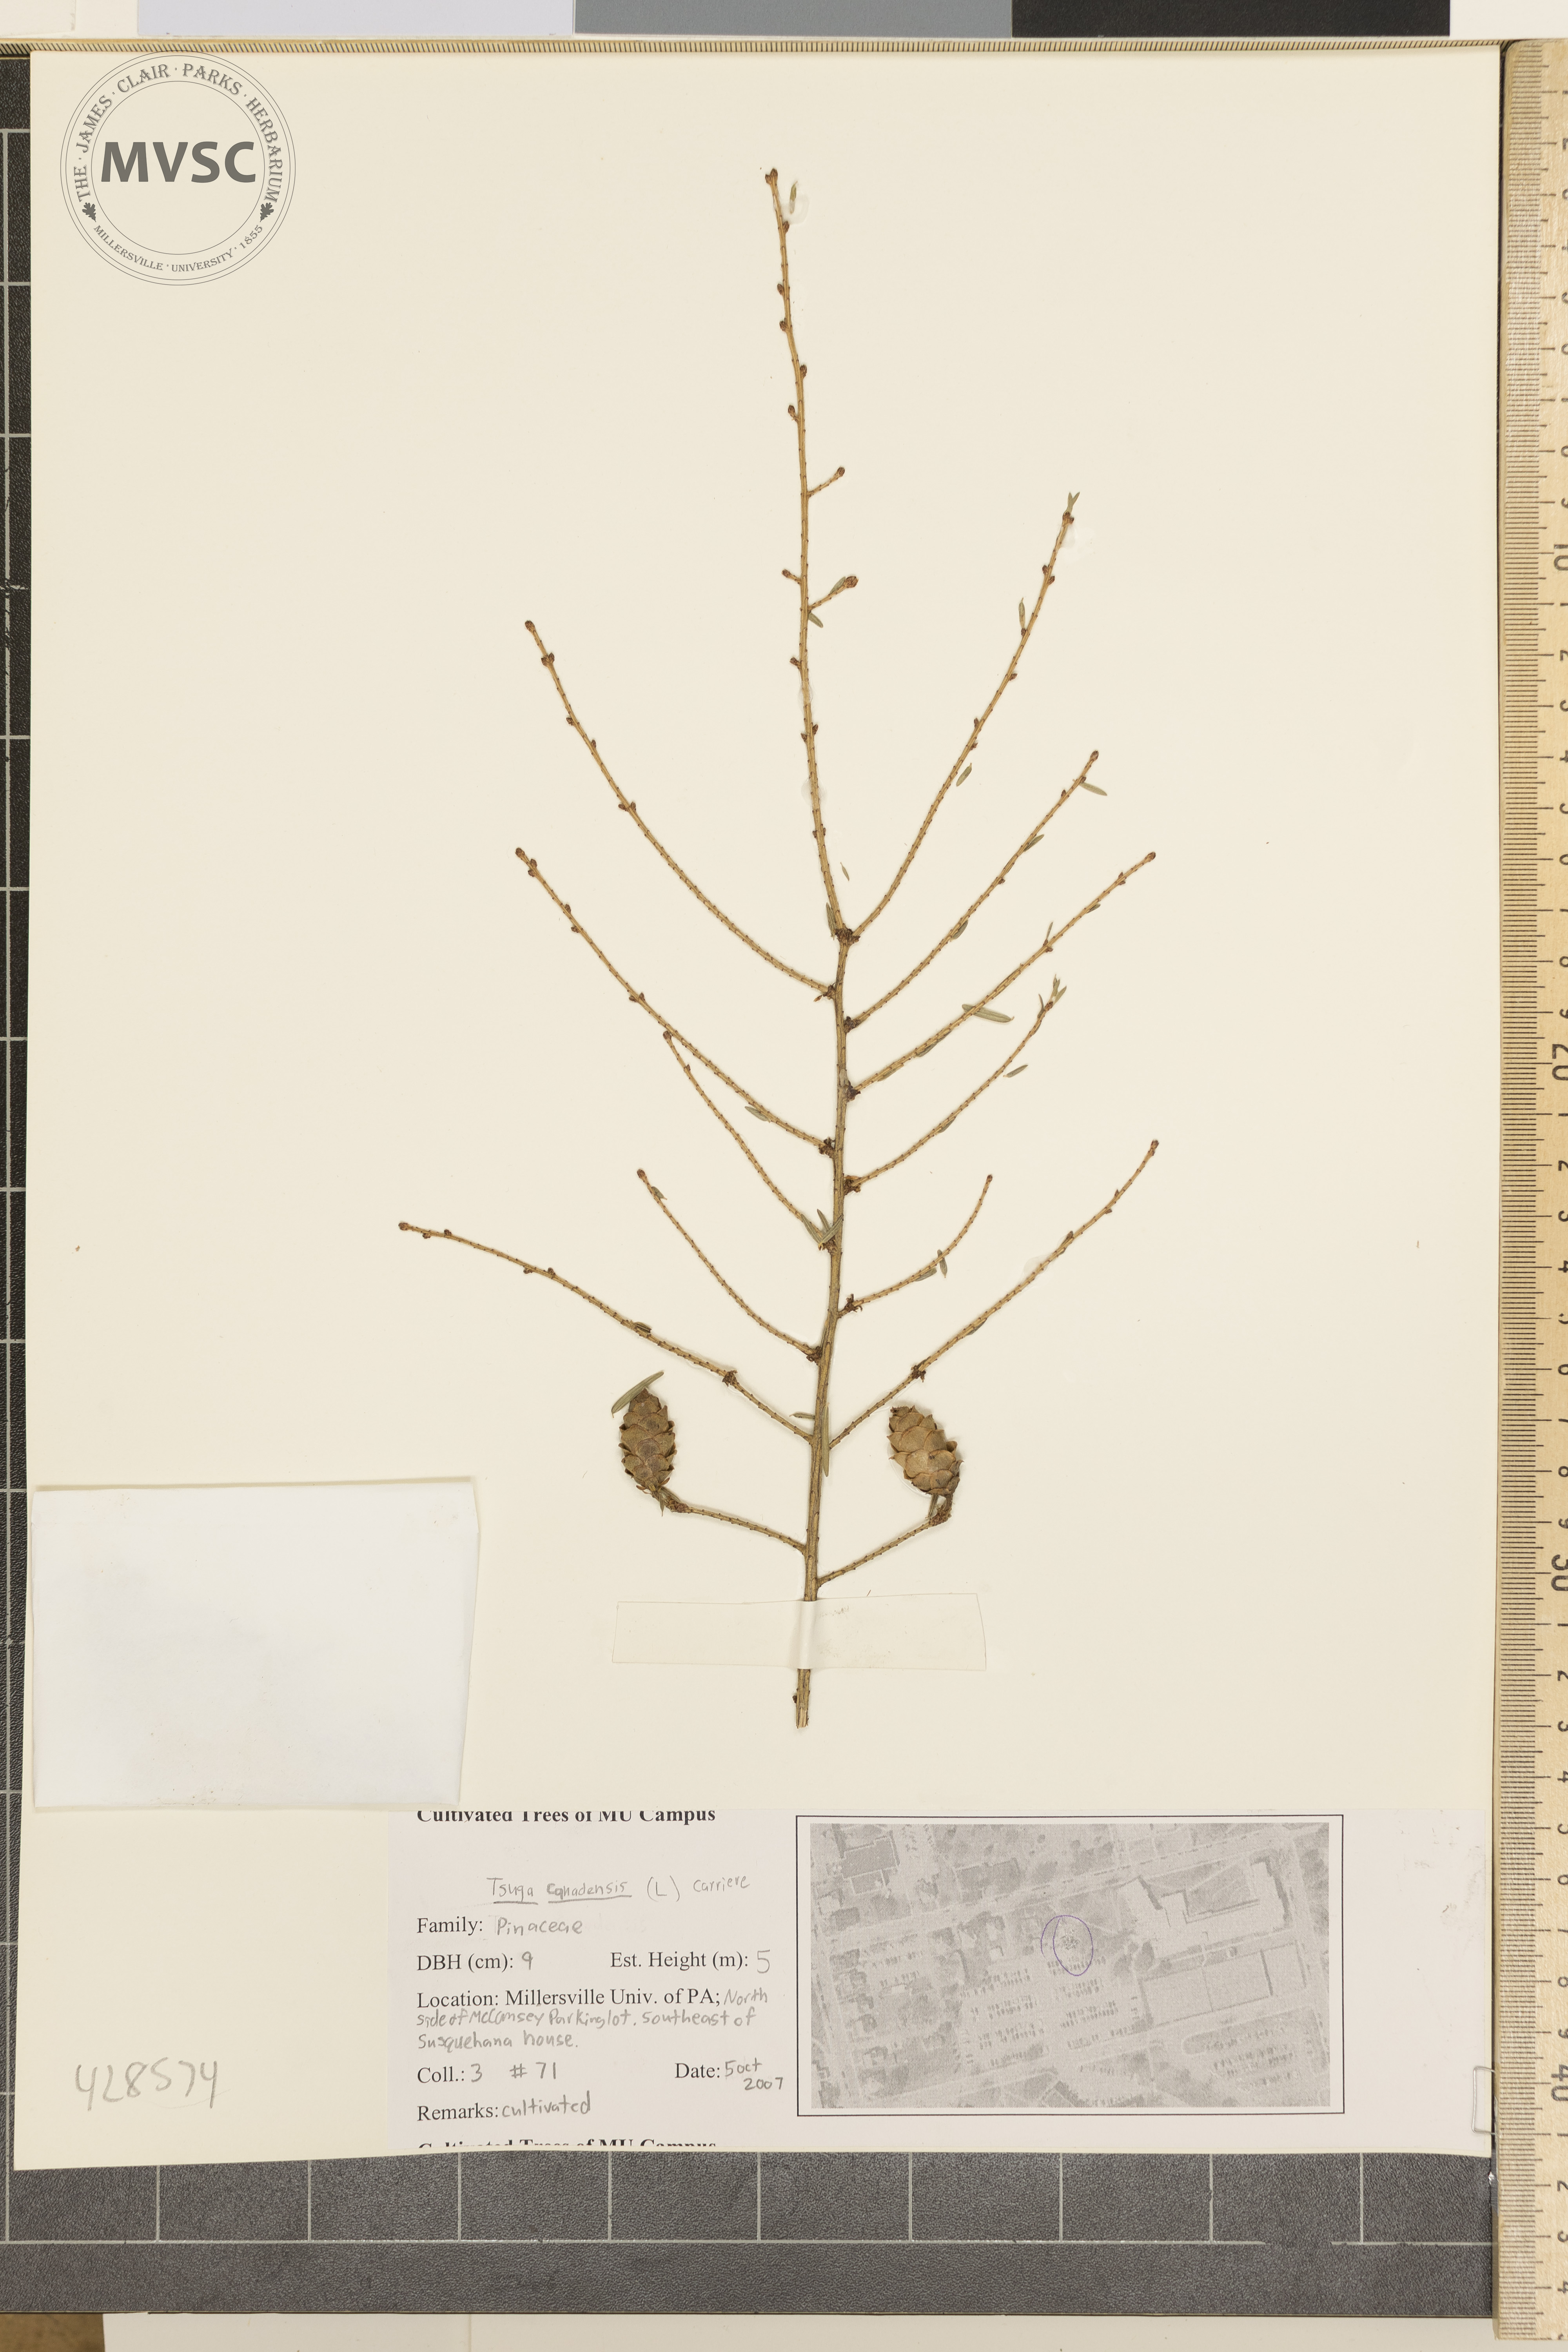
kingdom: Plantae
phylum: Tracheophyta
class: Pinopsida
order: Pinales
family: Pinaceae
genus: Tsuga
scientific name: Tsuga canadensis
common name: Canadian Hemlock
